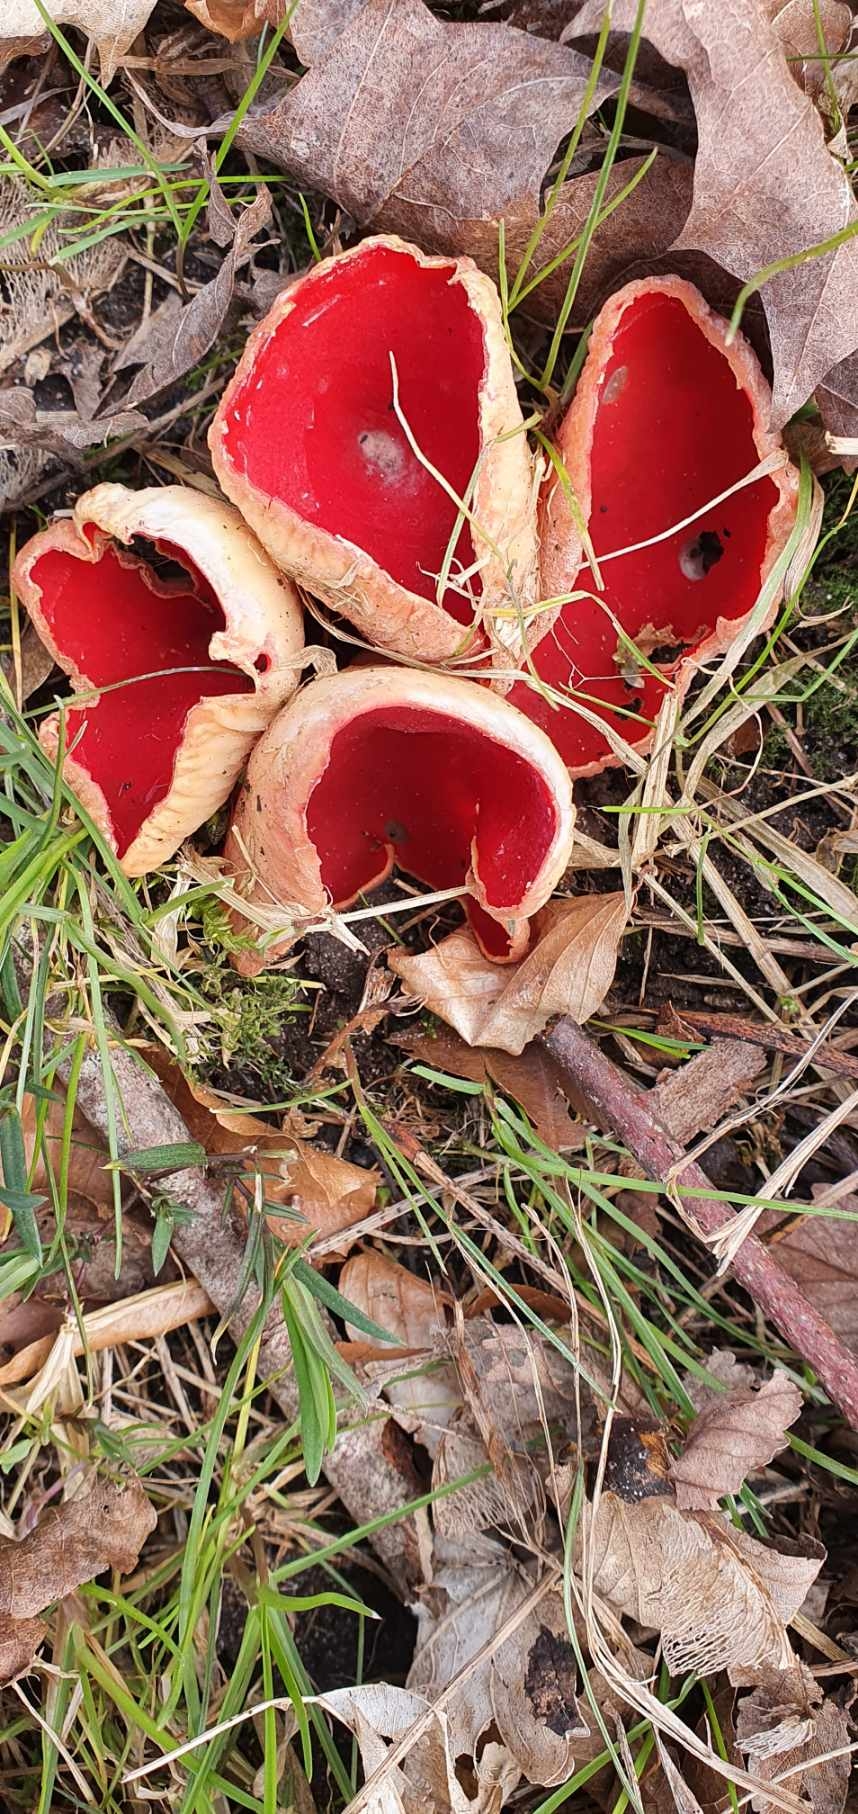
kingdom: Fungi
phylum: Ascomycota
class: Pezizomycetes
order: Pezizales
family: Sarcoscyphaceae
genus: Sarcoscypha
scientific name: Sarcoscypha
